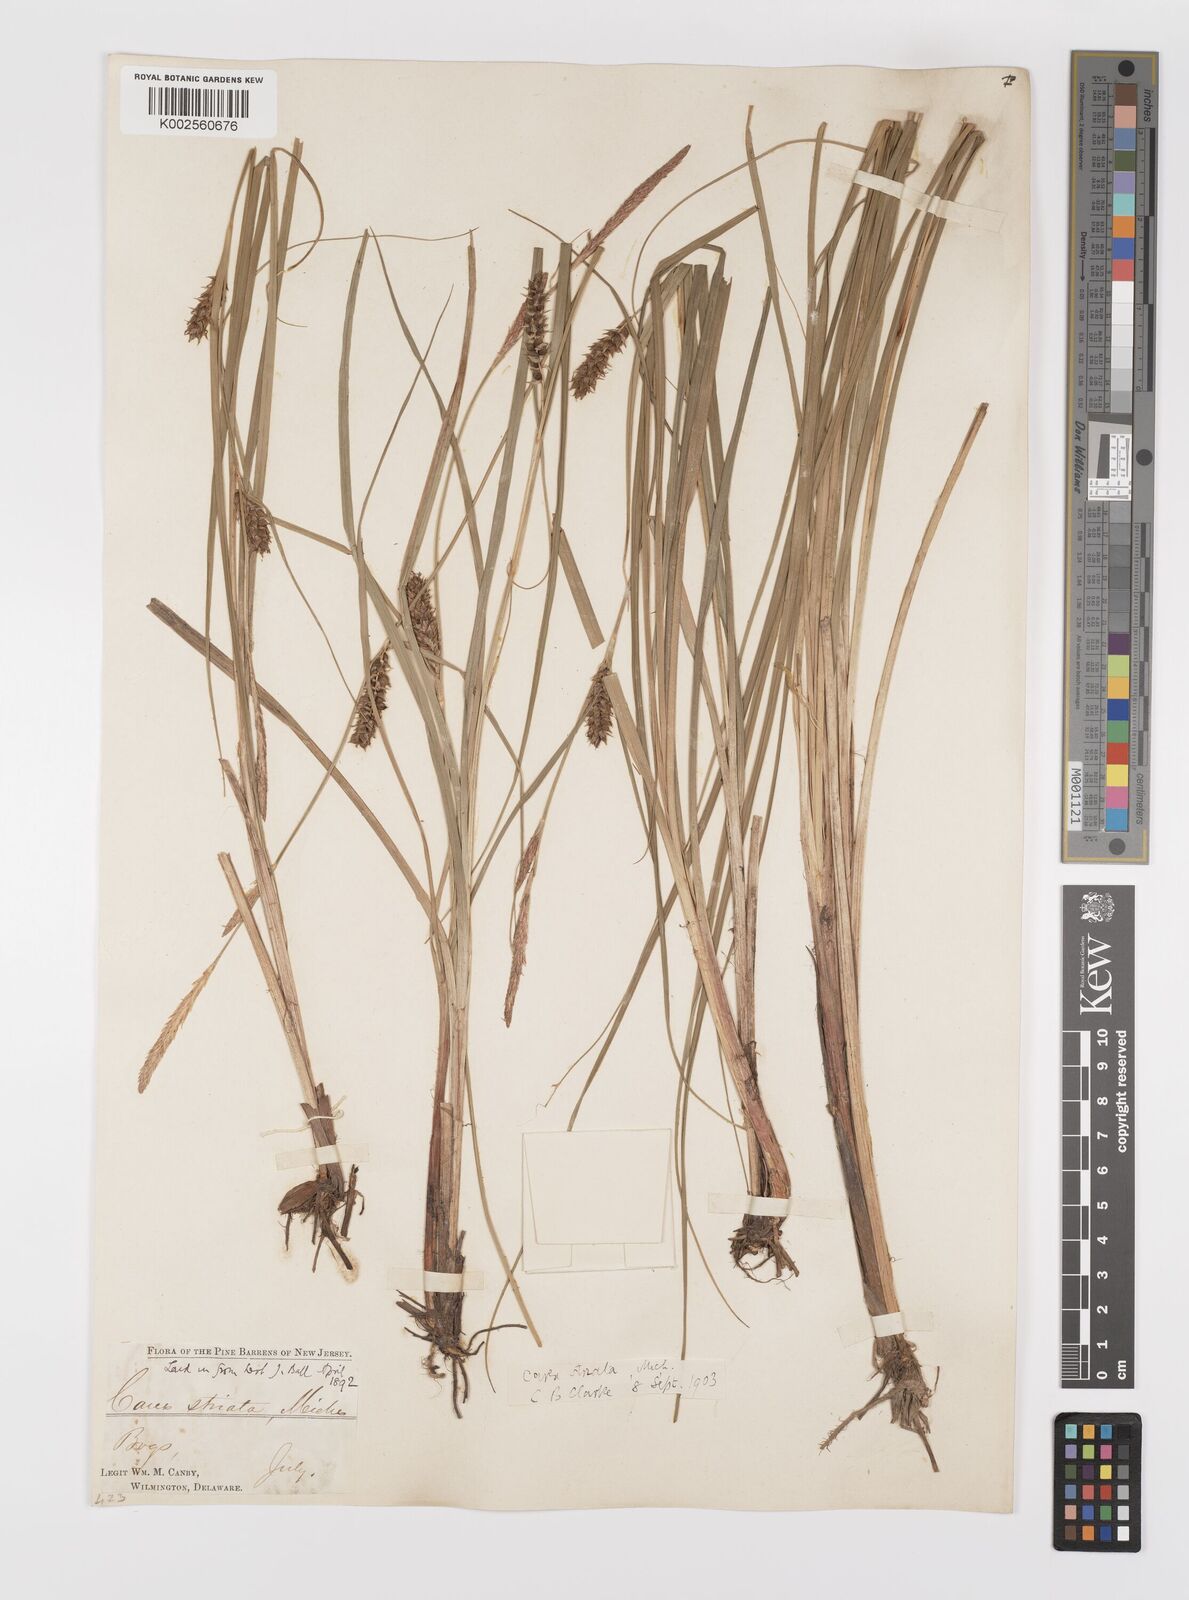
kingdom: Plantae
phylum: Tracheophyta
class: Liliopsida
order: Poales
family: Cyperaceae
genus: Carex
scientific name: Carex striata
